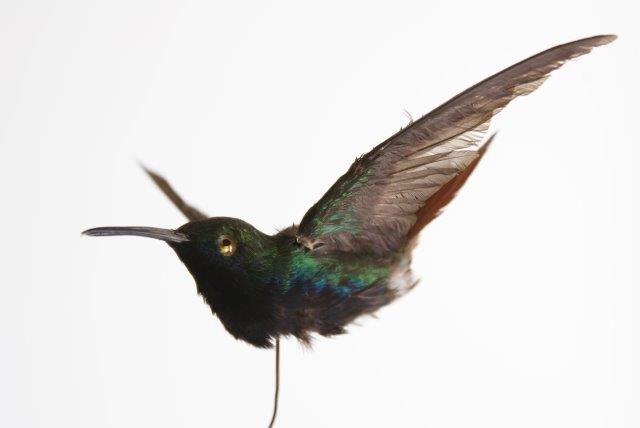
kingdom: Animalia
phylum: Chordata
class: Aves
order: Apodiformes
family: Trochilidae
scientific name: Trochilidae
